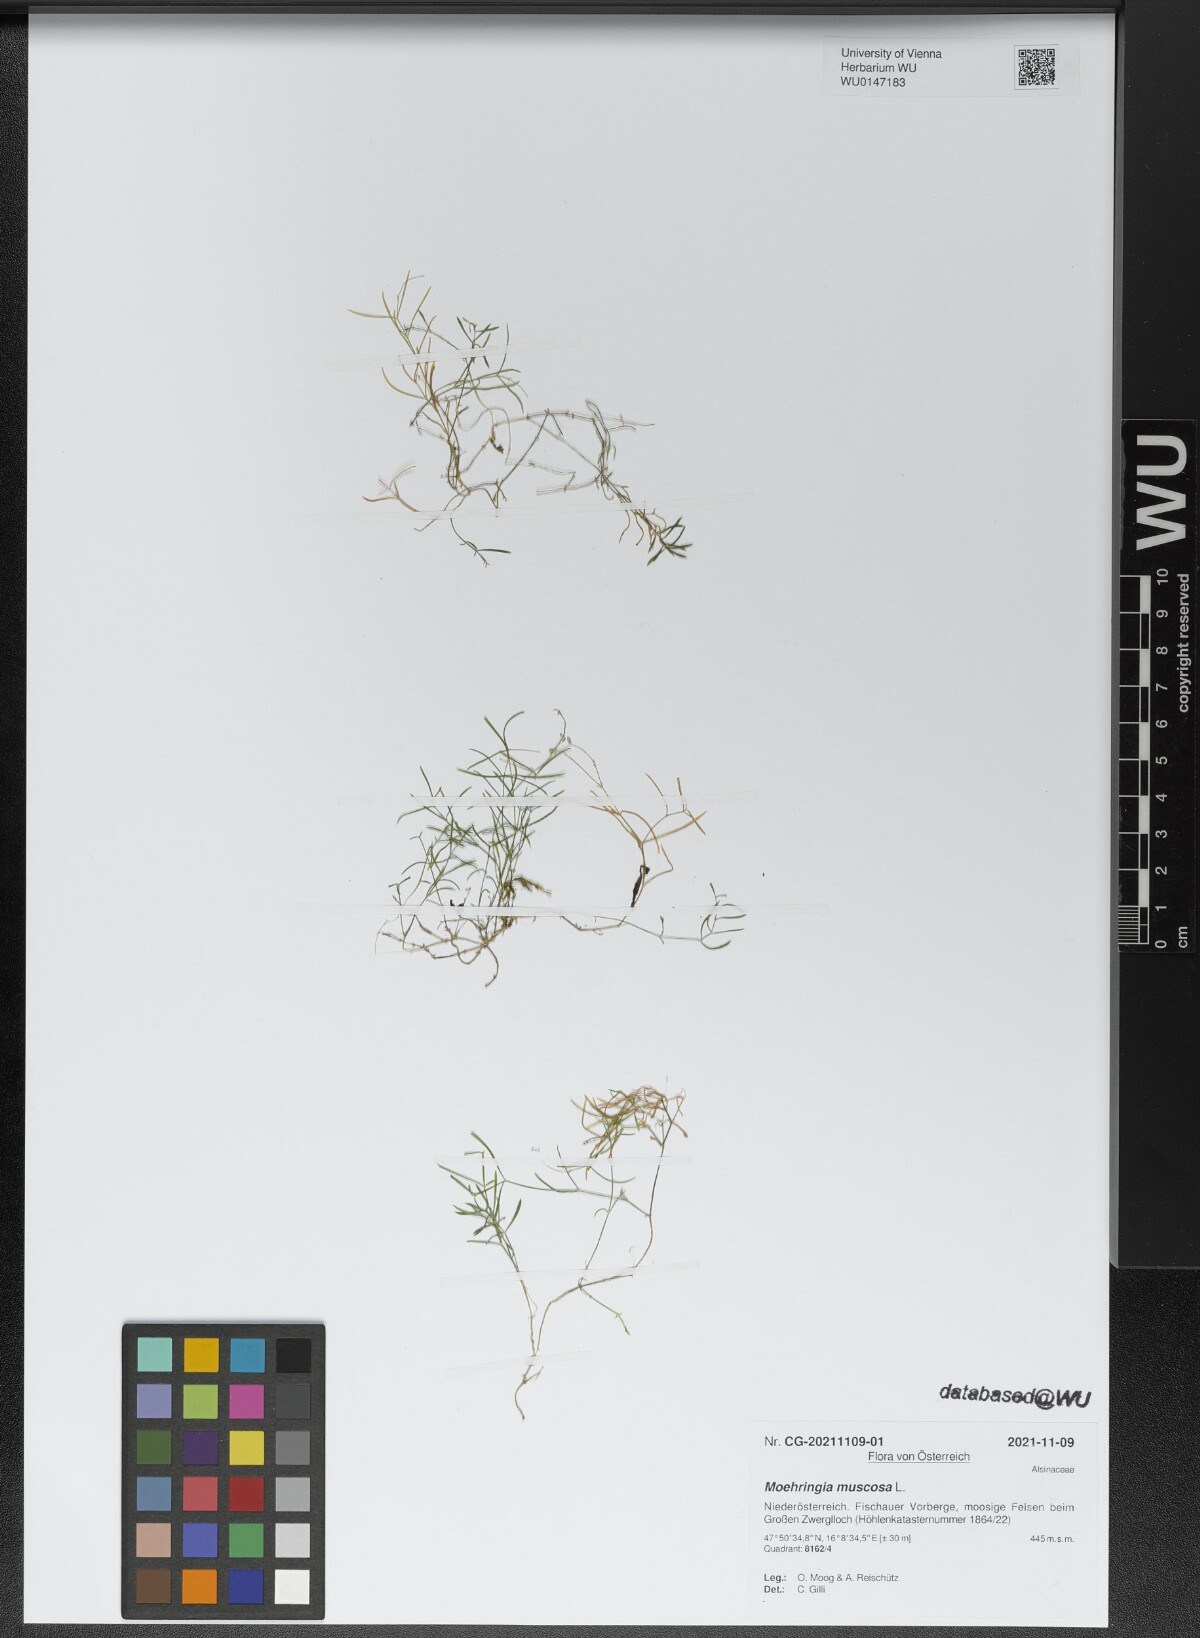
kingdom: Plantae
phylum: Tracheophyta
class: Magnoliopsida
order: Caryophyllales
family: Caryophyllaceae
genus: Moehringia
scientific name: Moehringia muscosa
